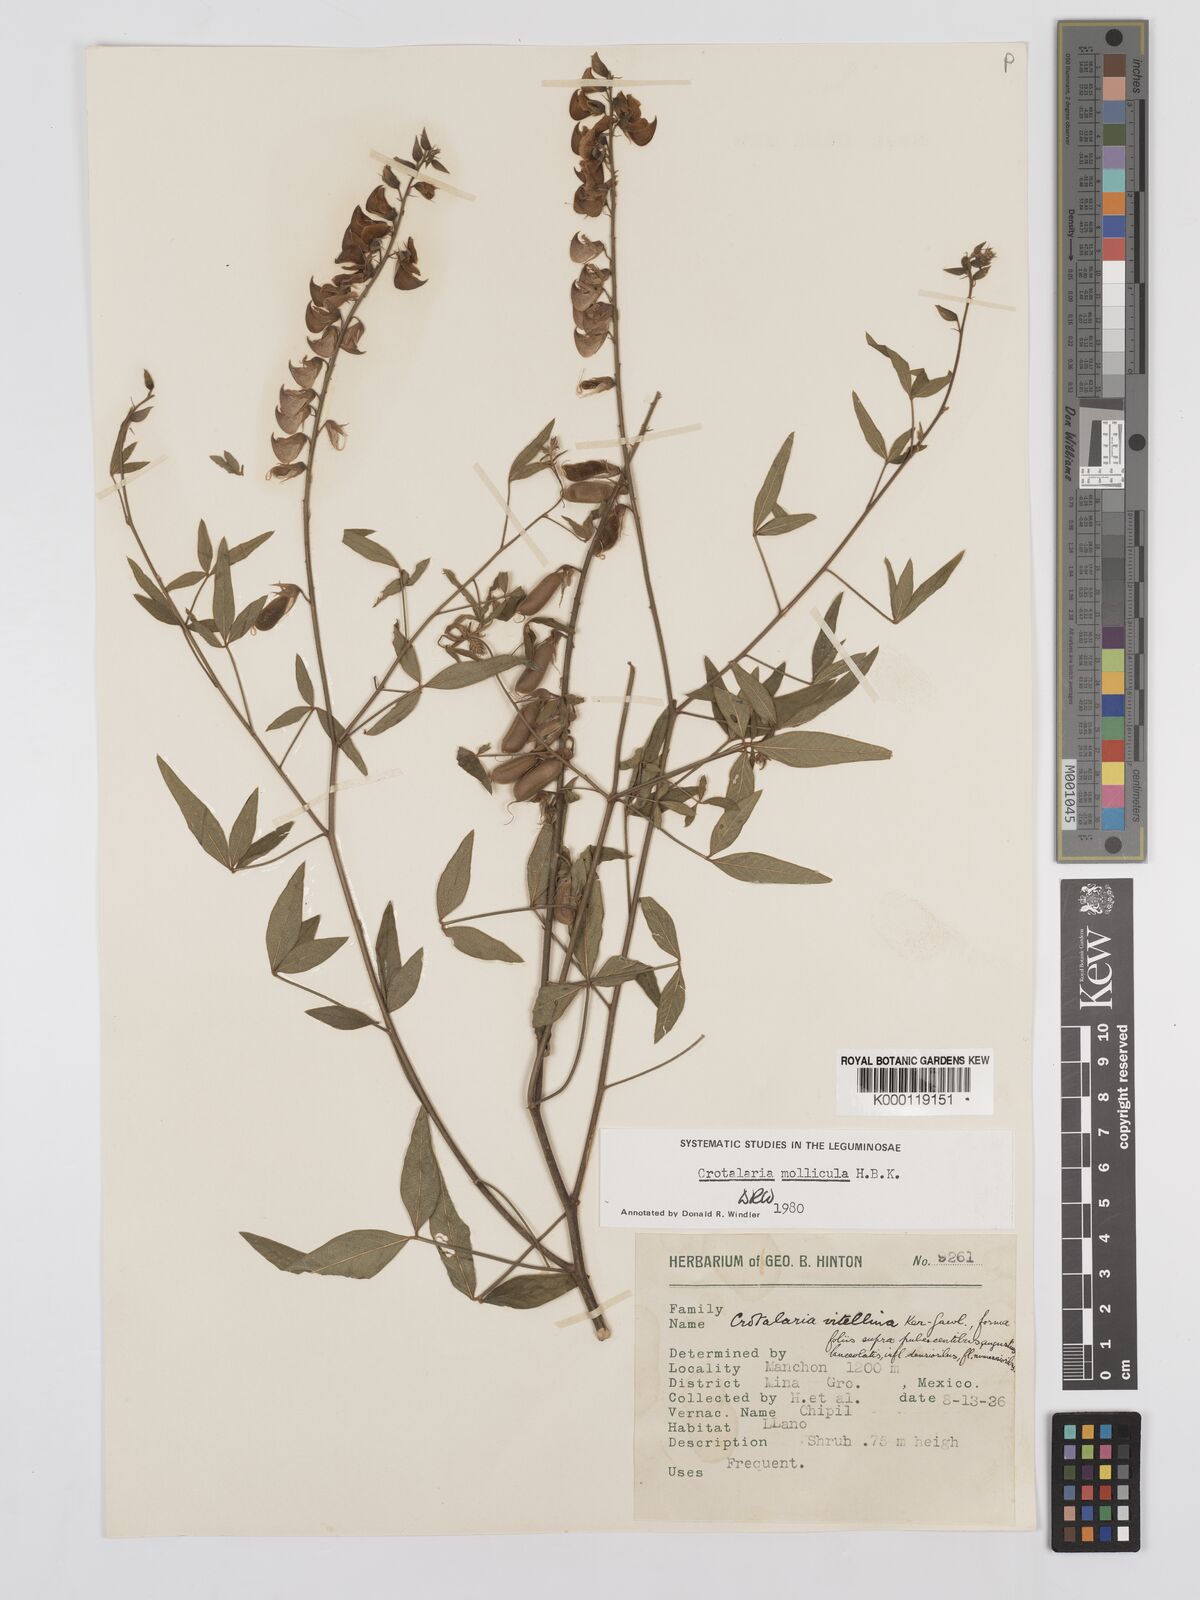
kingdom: Plantae
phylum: Tracheophyta
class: Magnoliopsida
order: Fabales
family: Fabaceae
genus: Crotalaria
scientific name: Crotalaria mollicula
